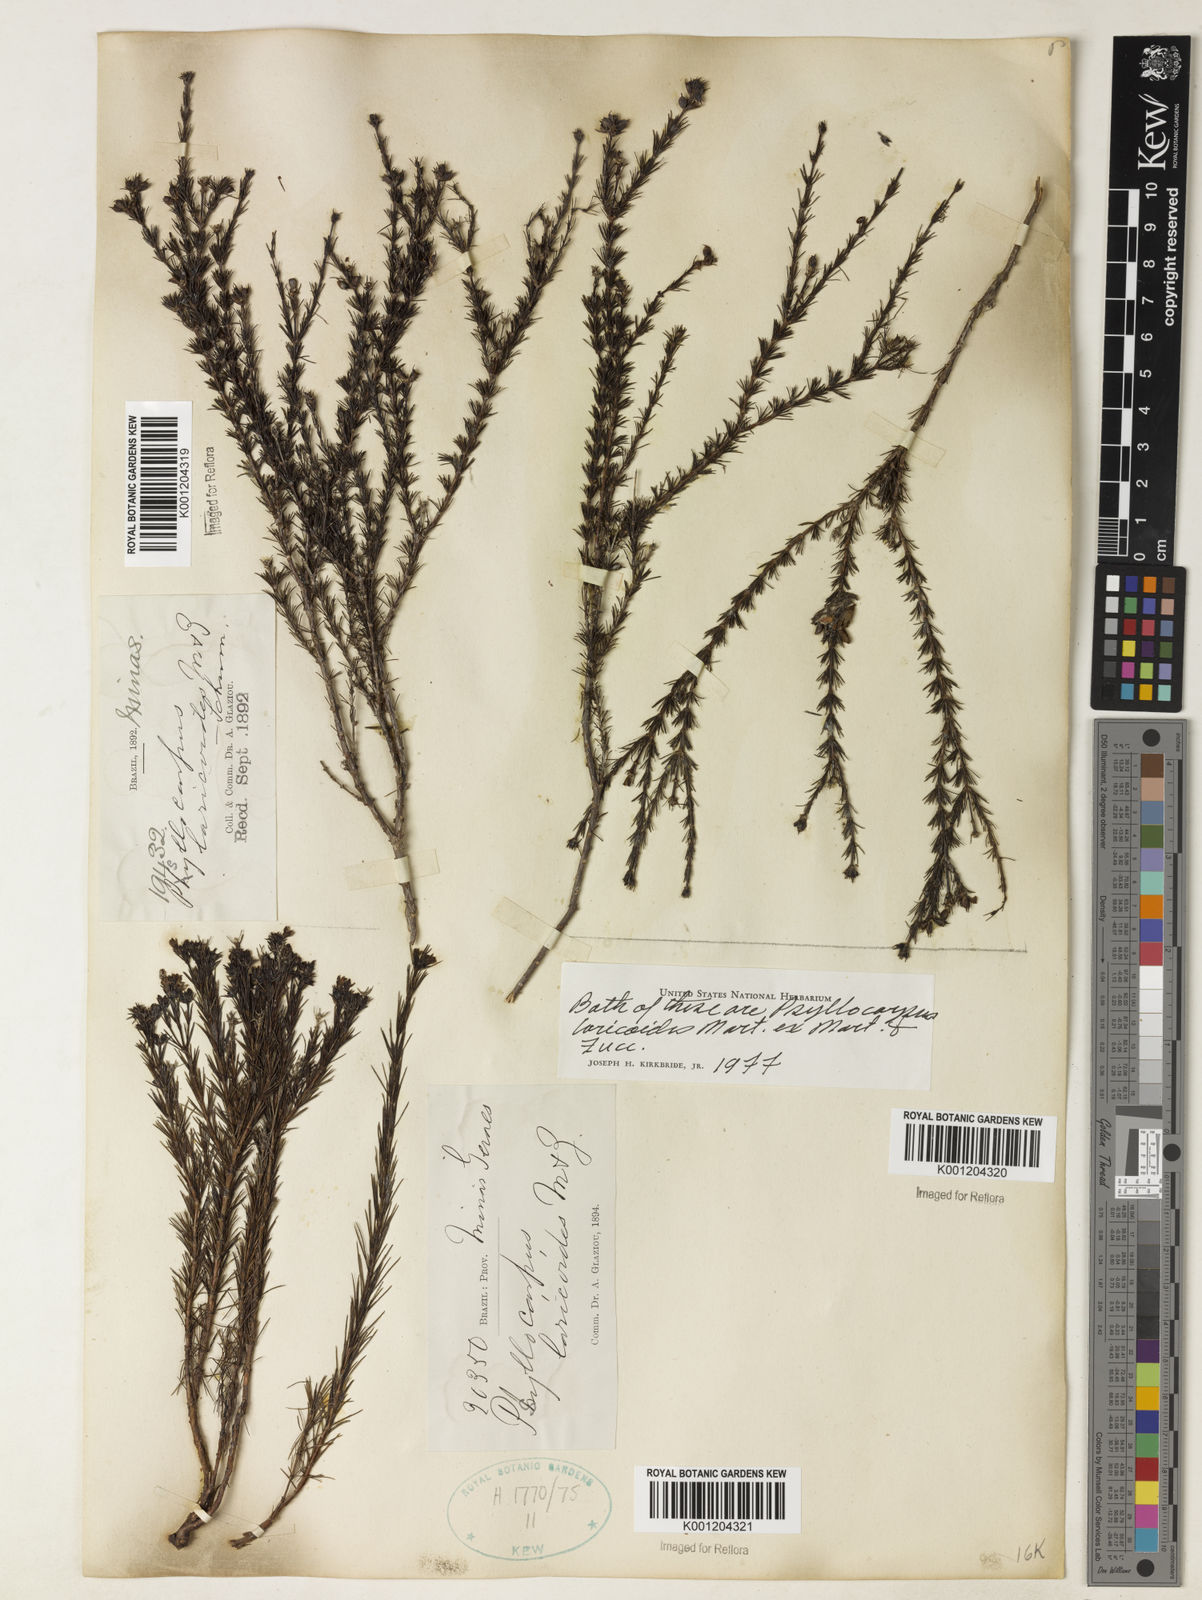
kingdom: Plantae
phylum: Tracheophyta
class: Magnoliopsida
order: Gentianales
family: Rubiaceae
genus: Psyllocarpus
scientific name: Psyllocarpus laricoides
